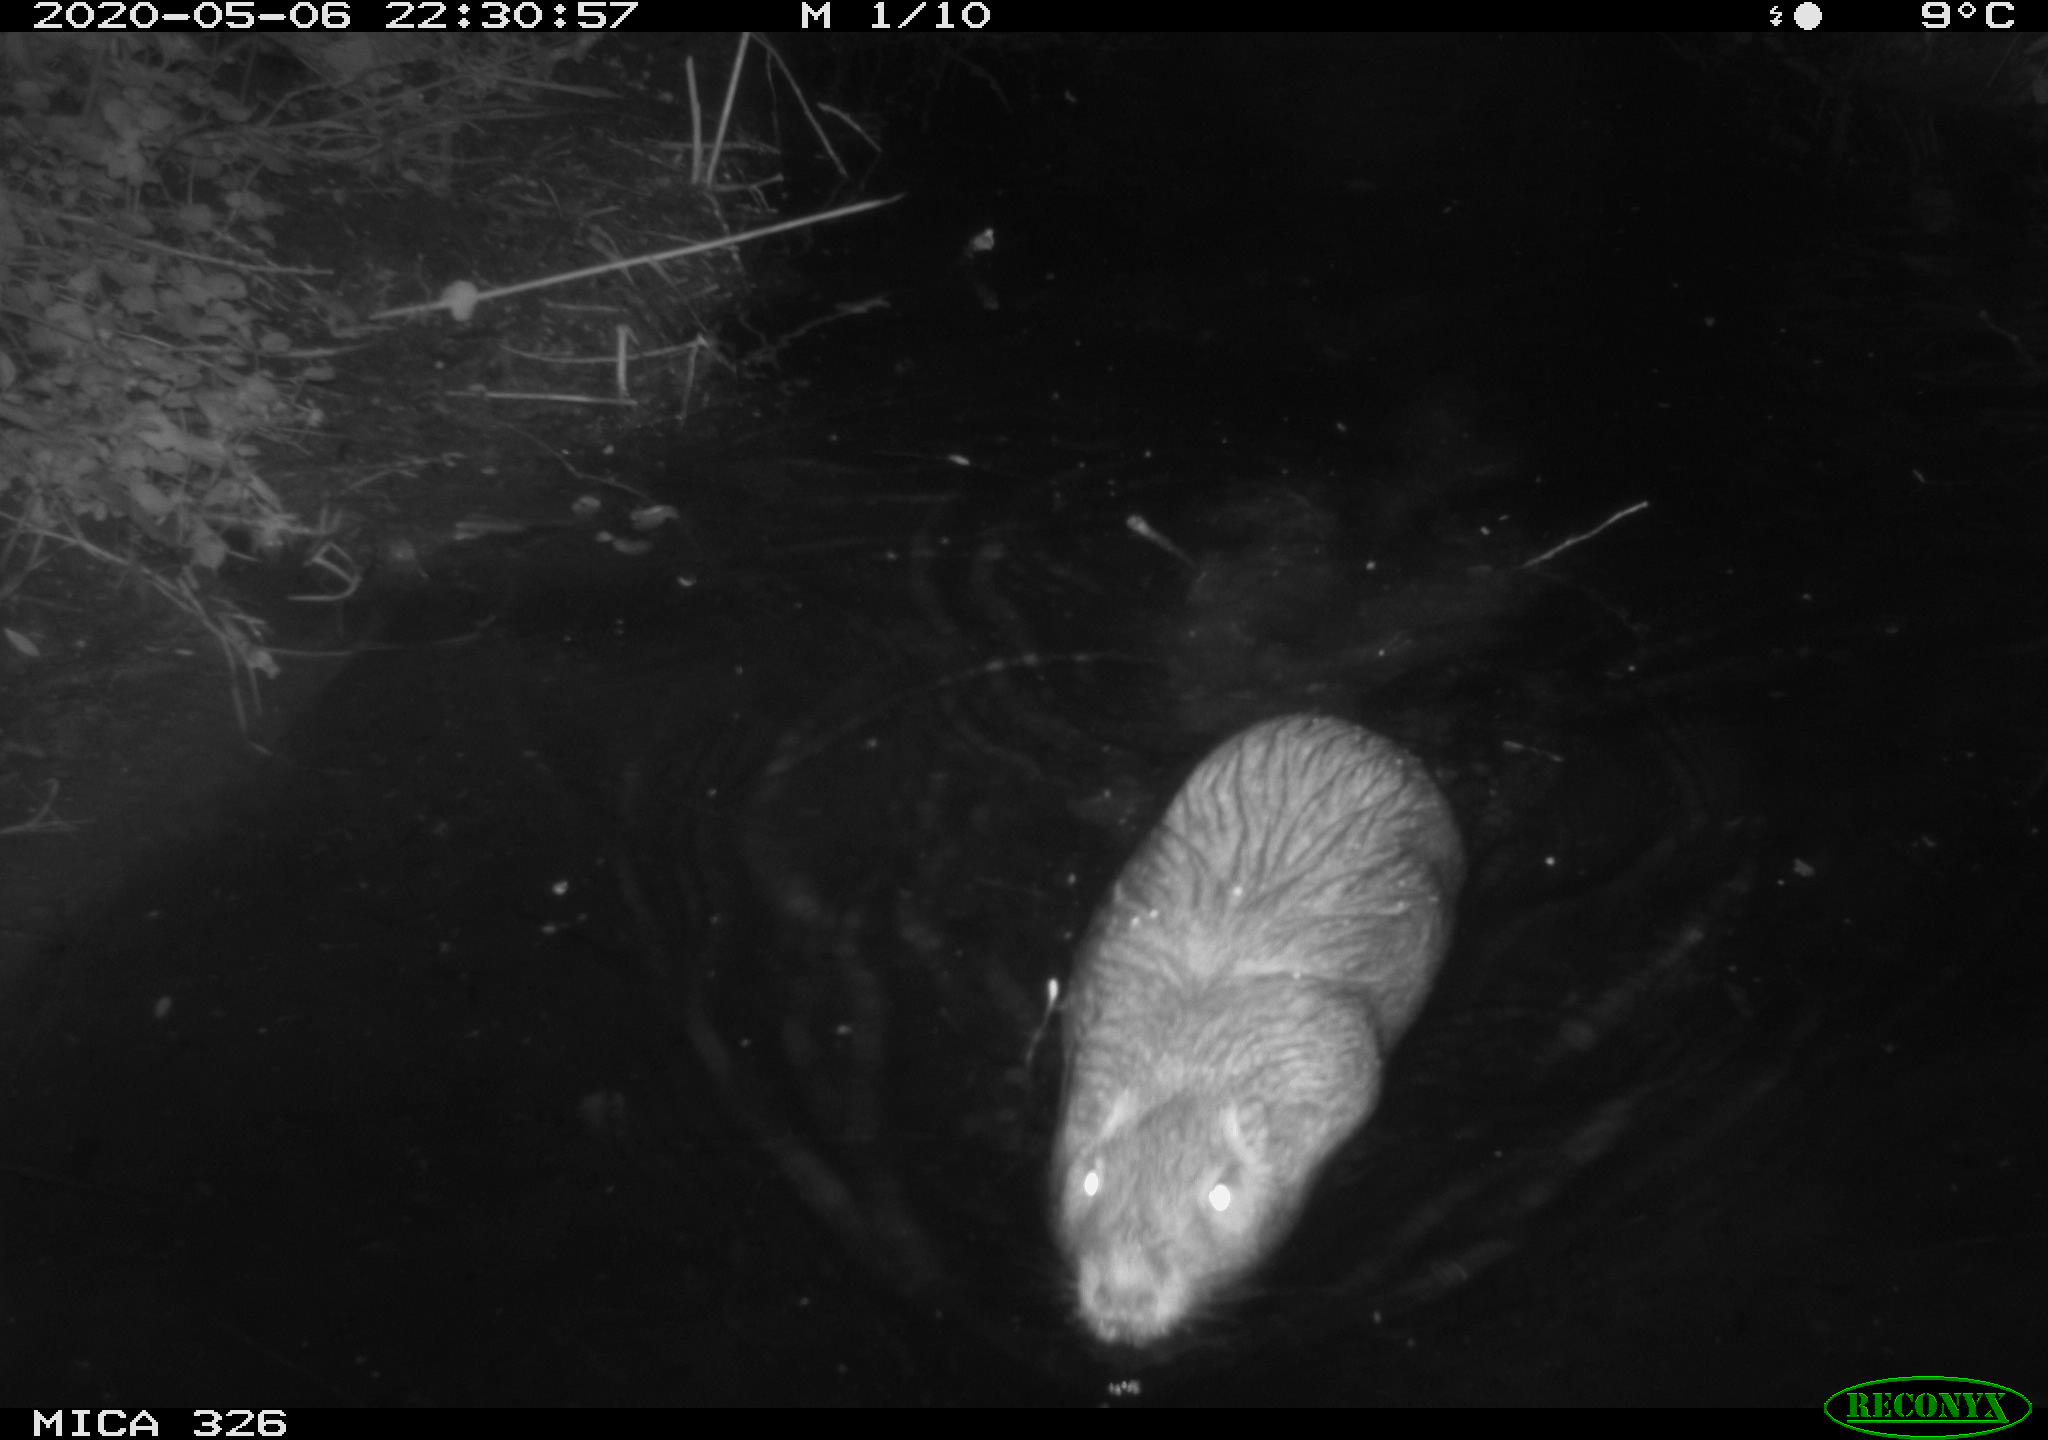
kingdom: Animalia
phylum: Chordata
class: Mammalia
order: Rodentia
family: Myocastoridae
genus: Myocastor
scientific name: Myocastor coypus
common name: Coypu
